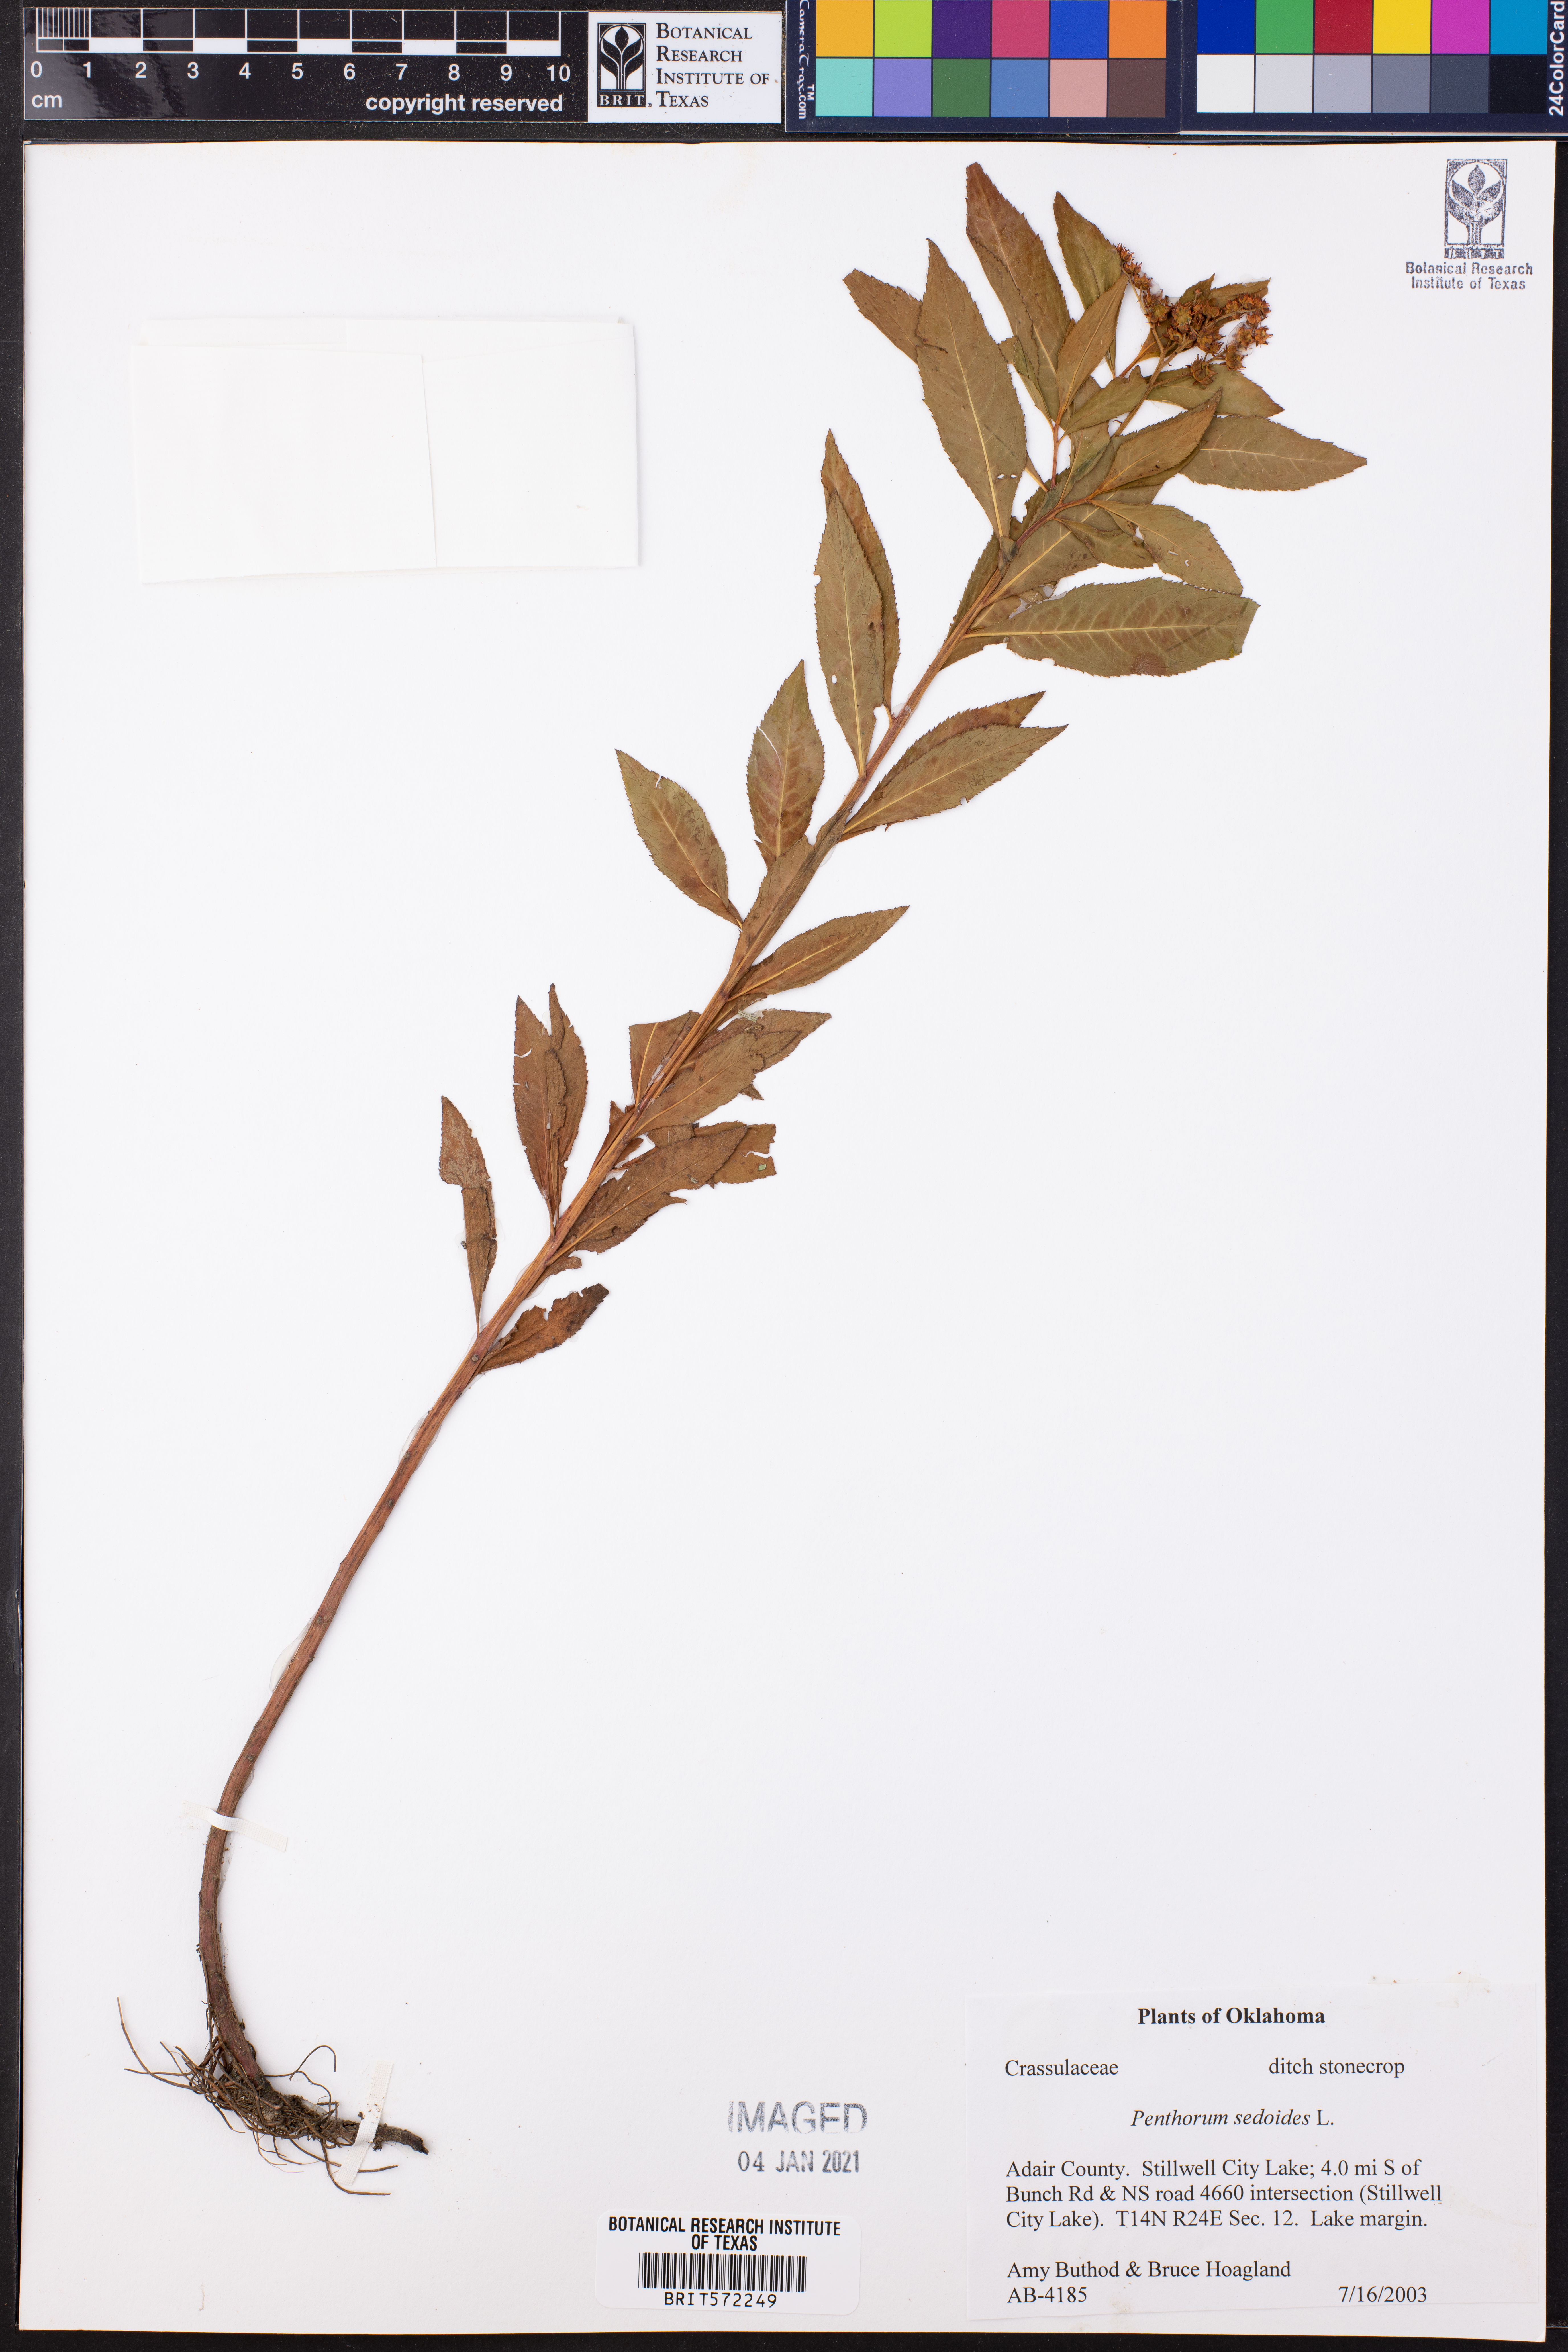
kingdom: Plantae
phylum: Tracheophyta
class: Magnoliopsida
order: Saxifragales
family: Penthoraceae
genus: Penthorum
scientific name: Penthorum sedoides
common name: Ditch stonecrop
